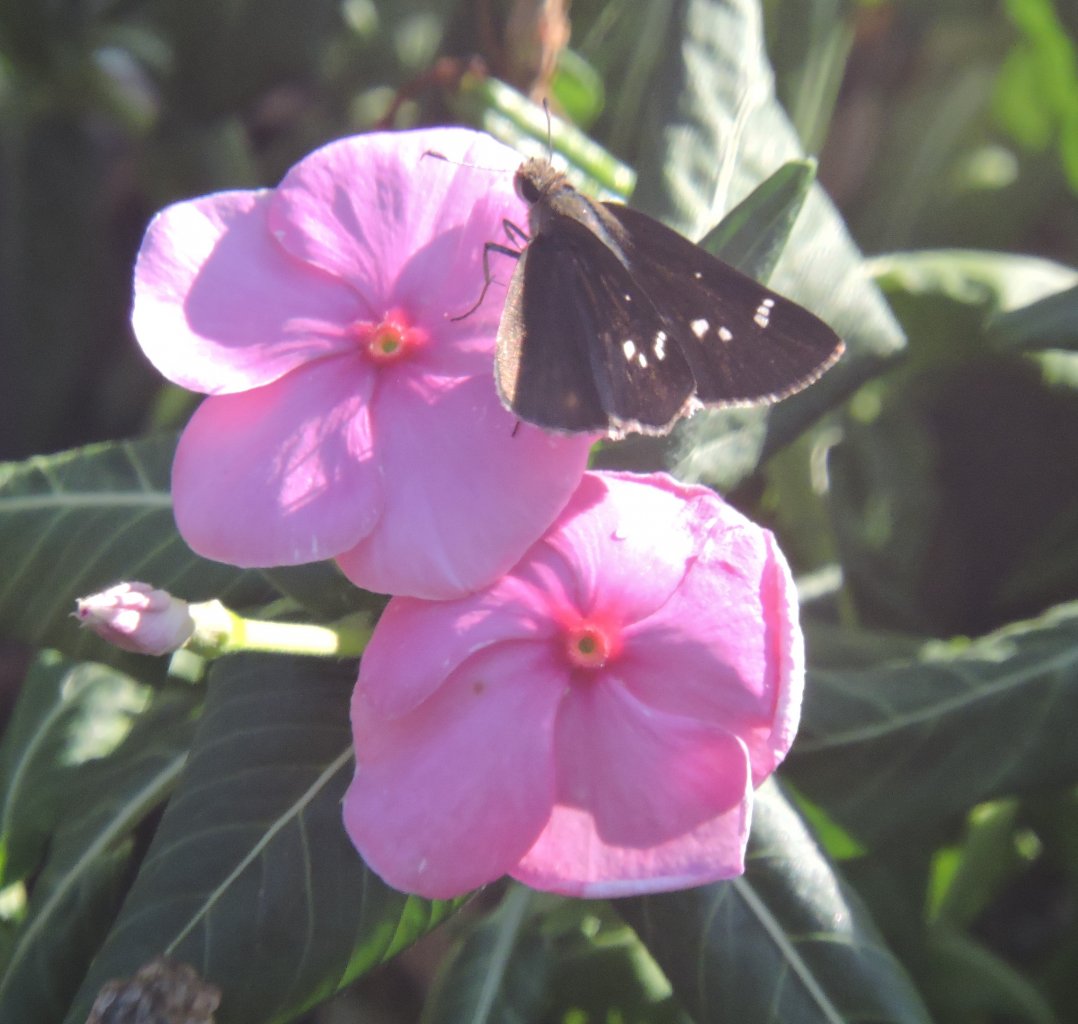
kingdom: Animalia
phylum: Arthropoda
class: Insecta
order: Lepidoptera
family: Hesperiidae
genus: Lerema
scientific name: Lerema accius
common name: Clouded Skipper
